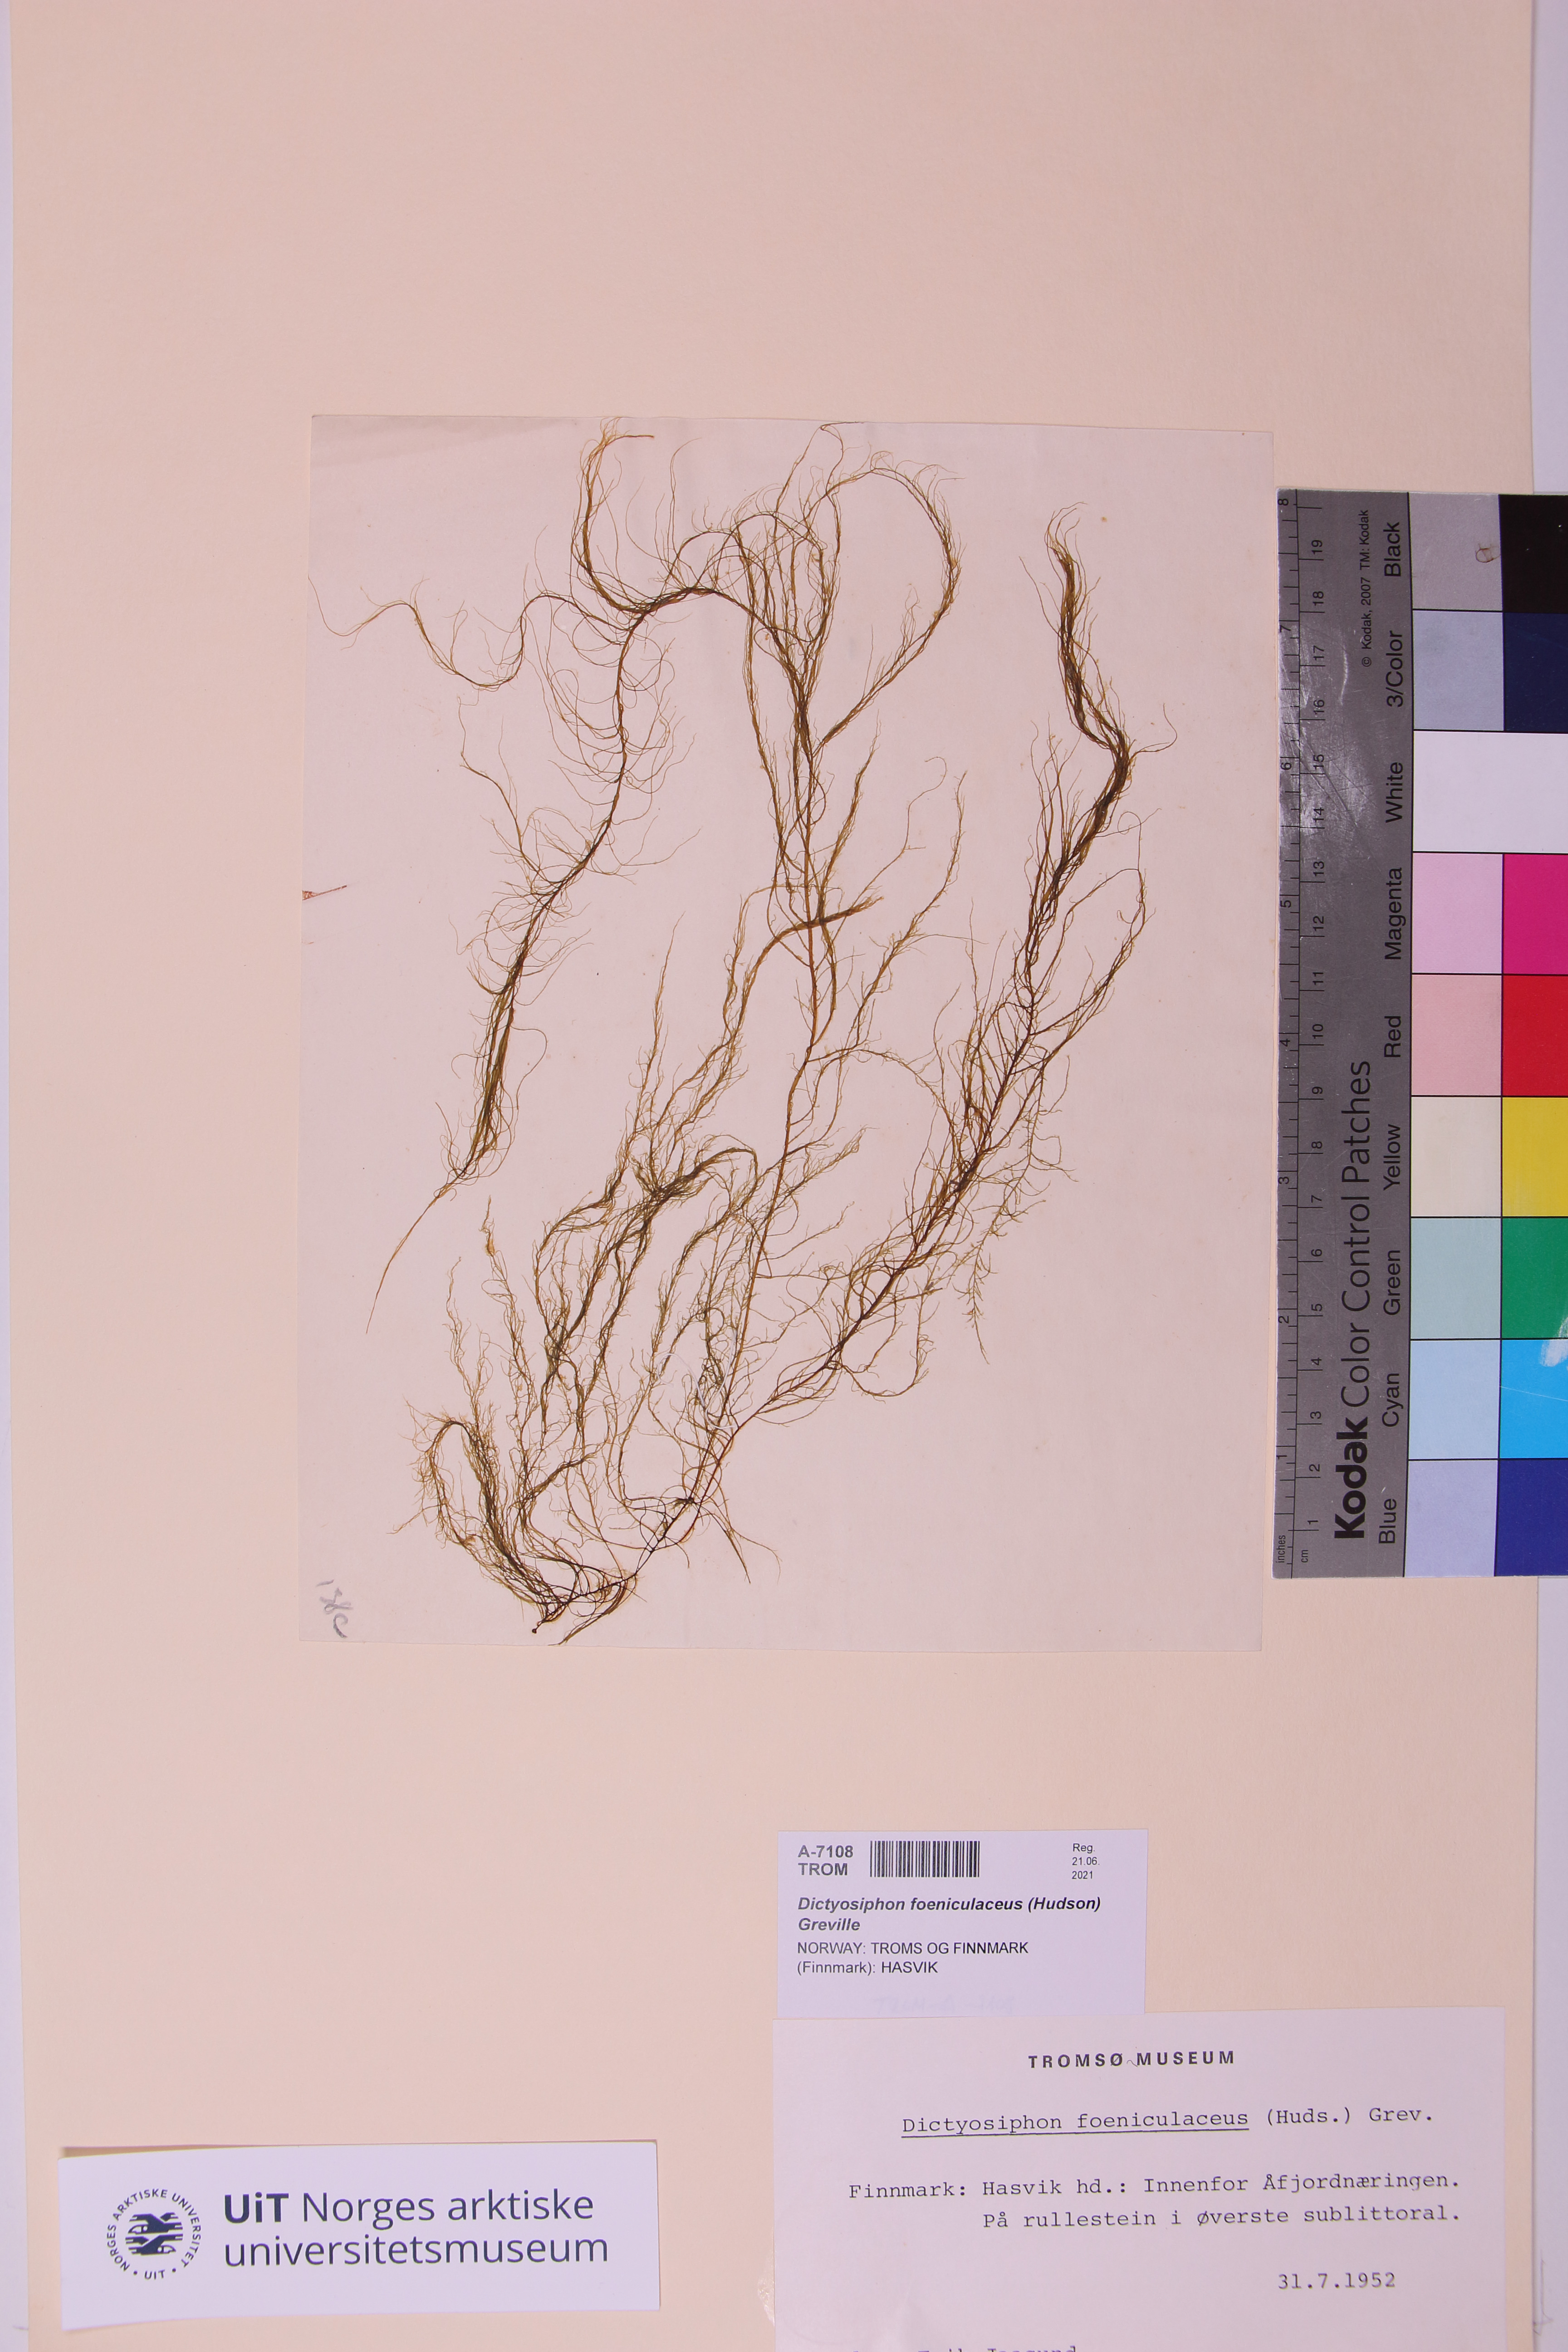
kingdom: Chromista
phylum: Ochrophyta
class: Phaeophyceae
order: Ectocarpales
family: Chordariaceae
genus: Dictyosiphon
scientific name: Dictyosiphon foeniculaceus
